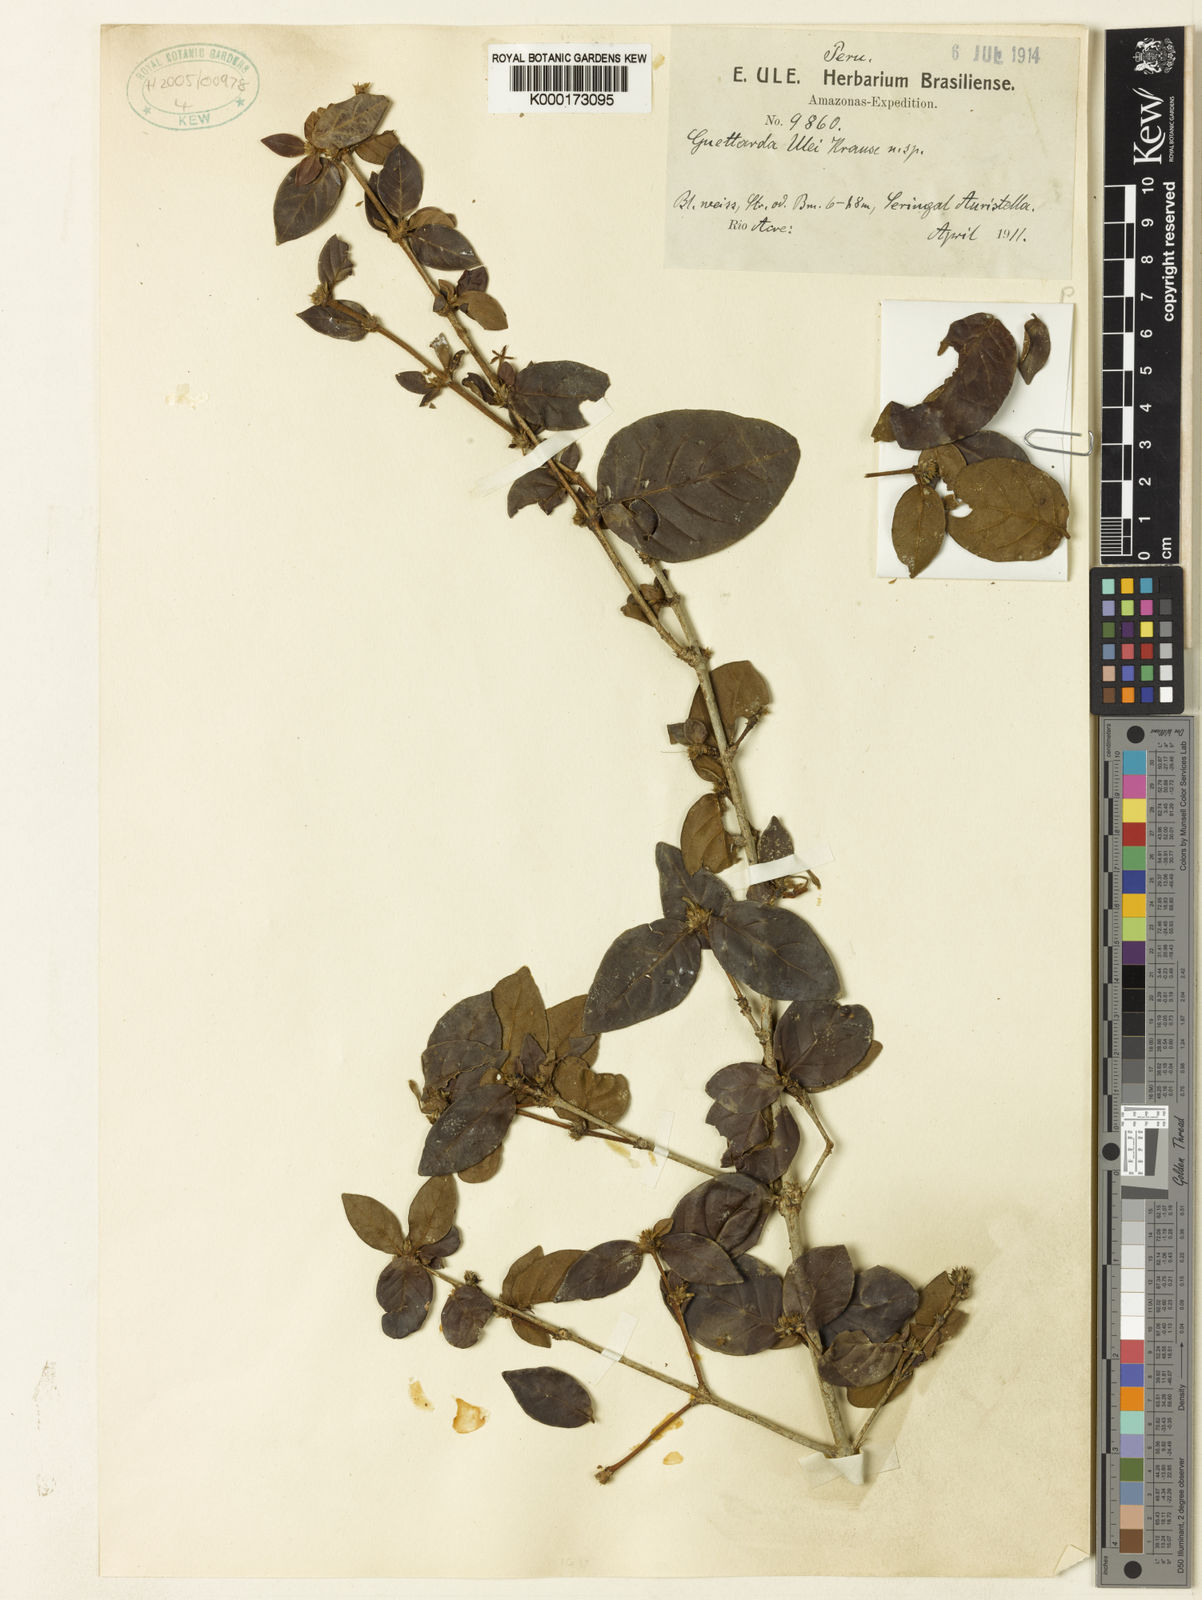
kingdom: Plantae
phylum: Tracheophyta
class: Magnoliopsida
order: Gentianales
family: Rubiaceae
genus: Chomelia
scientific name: Chomelia ulei
